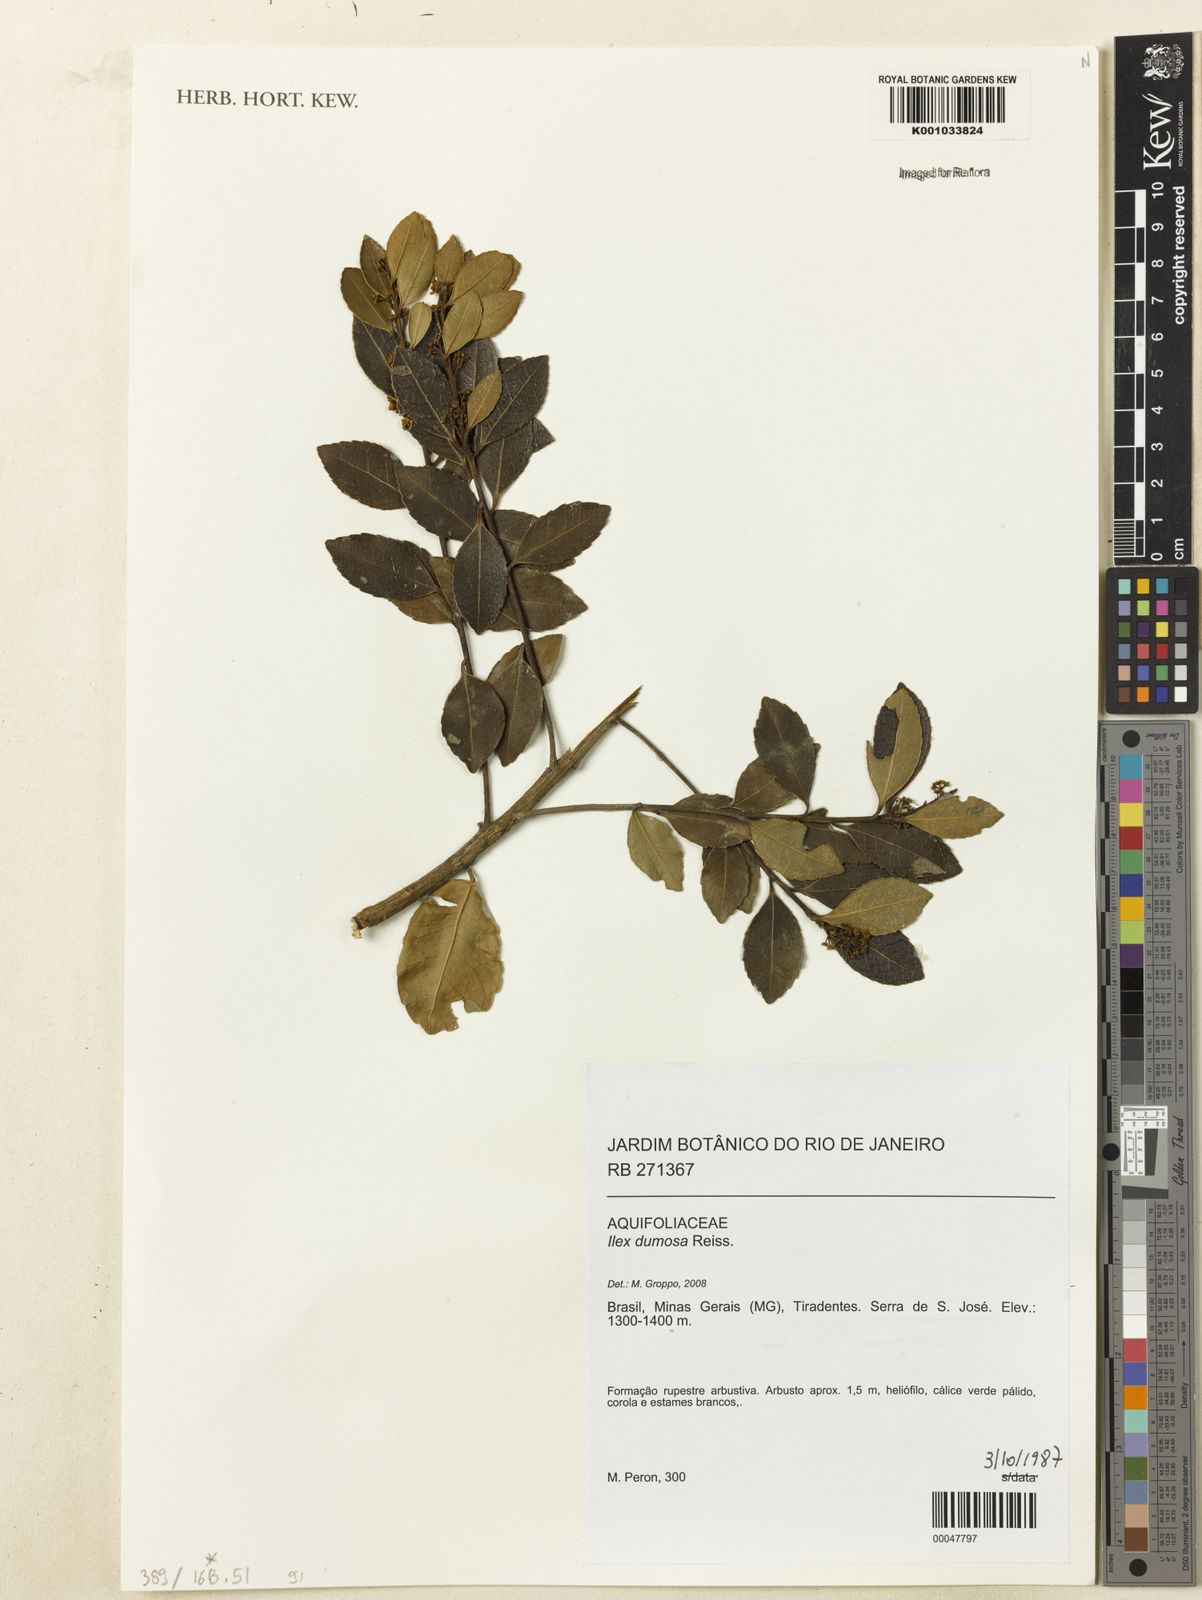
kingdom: Plantae
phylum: Tracheophyta
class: Magnoliopsida
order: Aquifoliales
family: Aquifoliaceae
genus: Ilex
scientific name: Ilex dumosa
